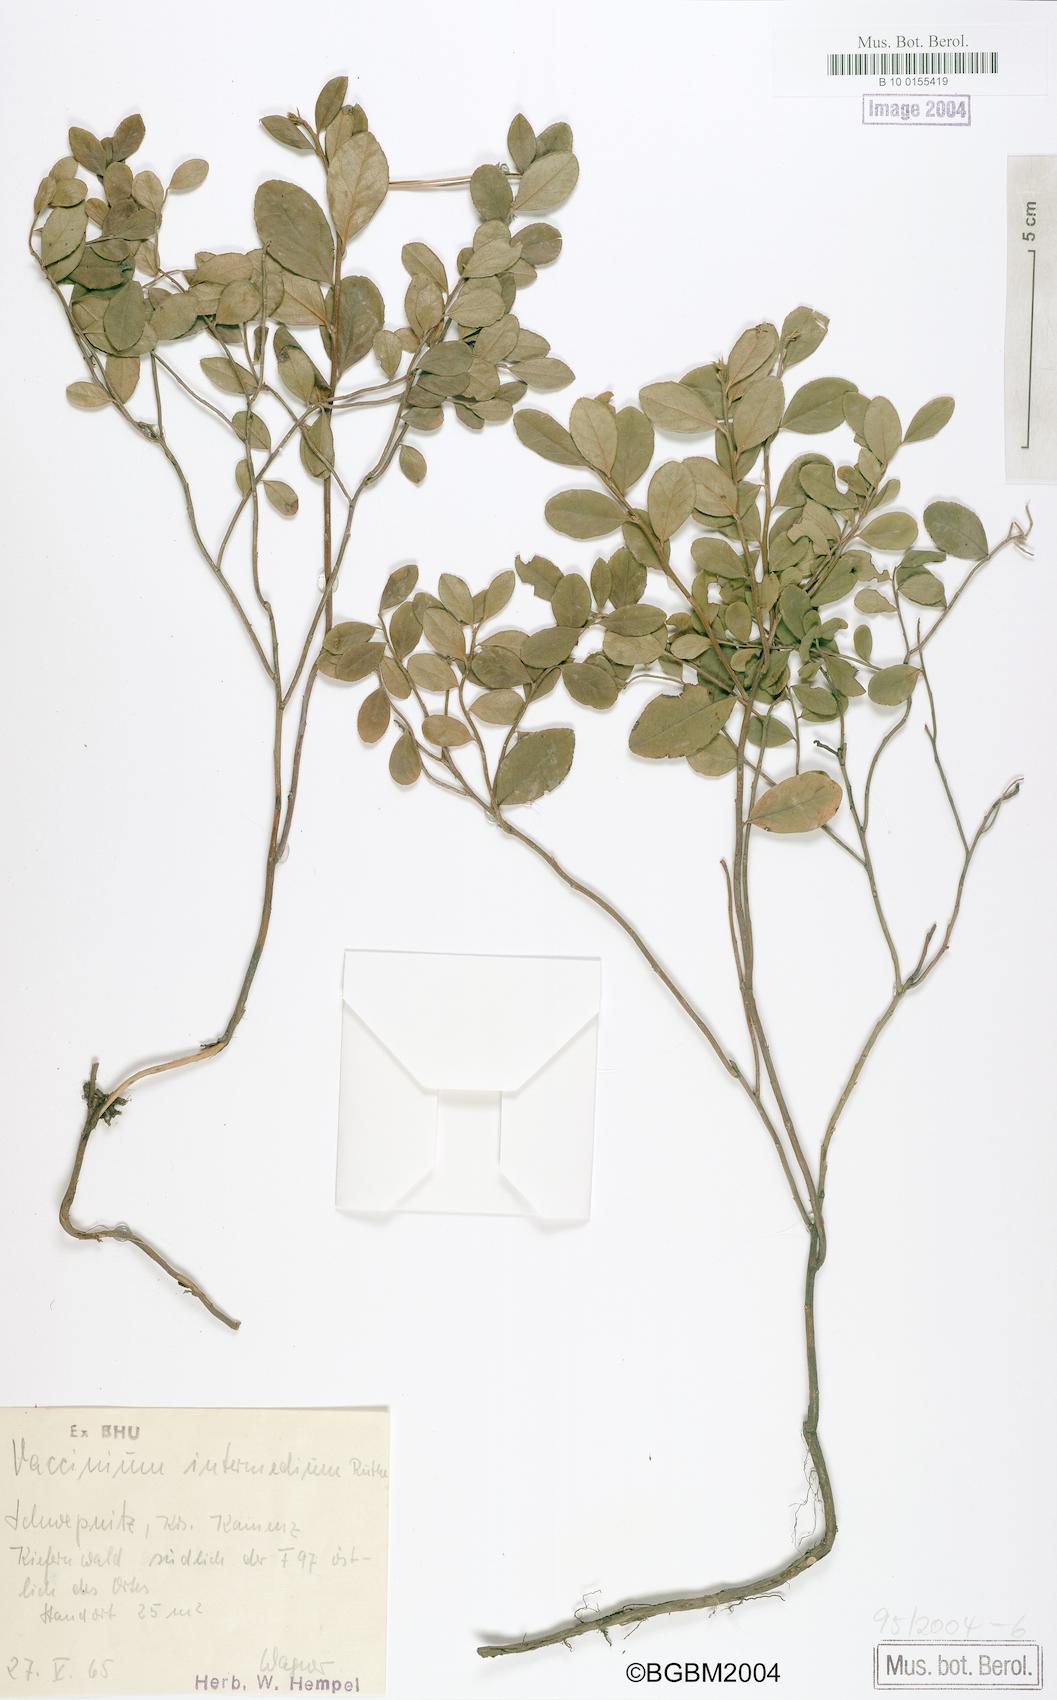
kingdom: Plantae
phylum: Tracheophyta
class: Magnoliopsida
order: Ericales
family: Ericaceae
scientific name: Ericaceae
